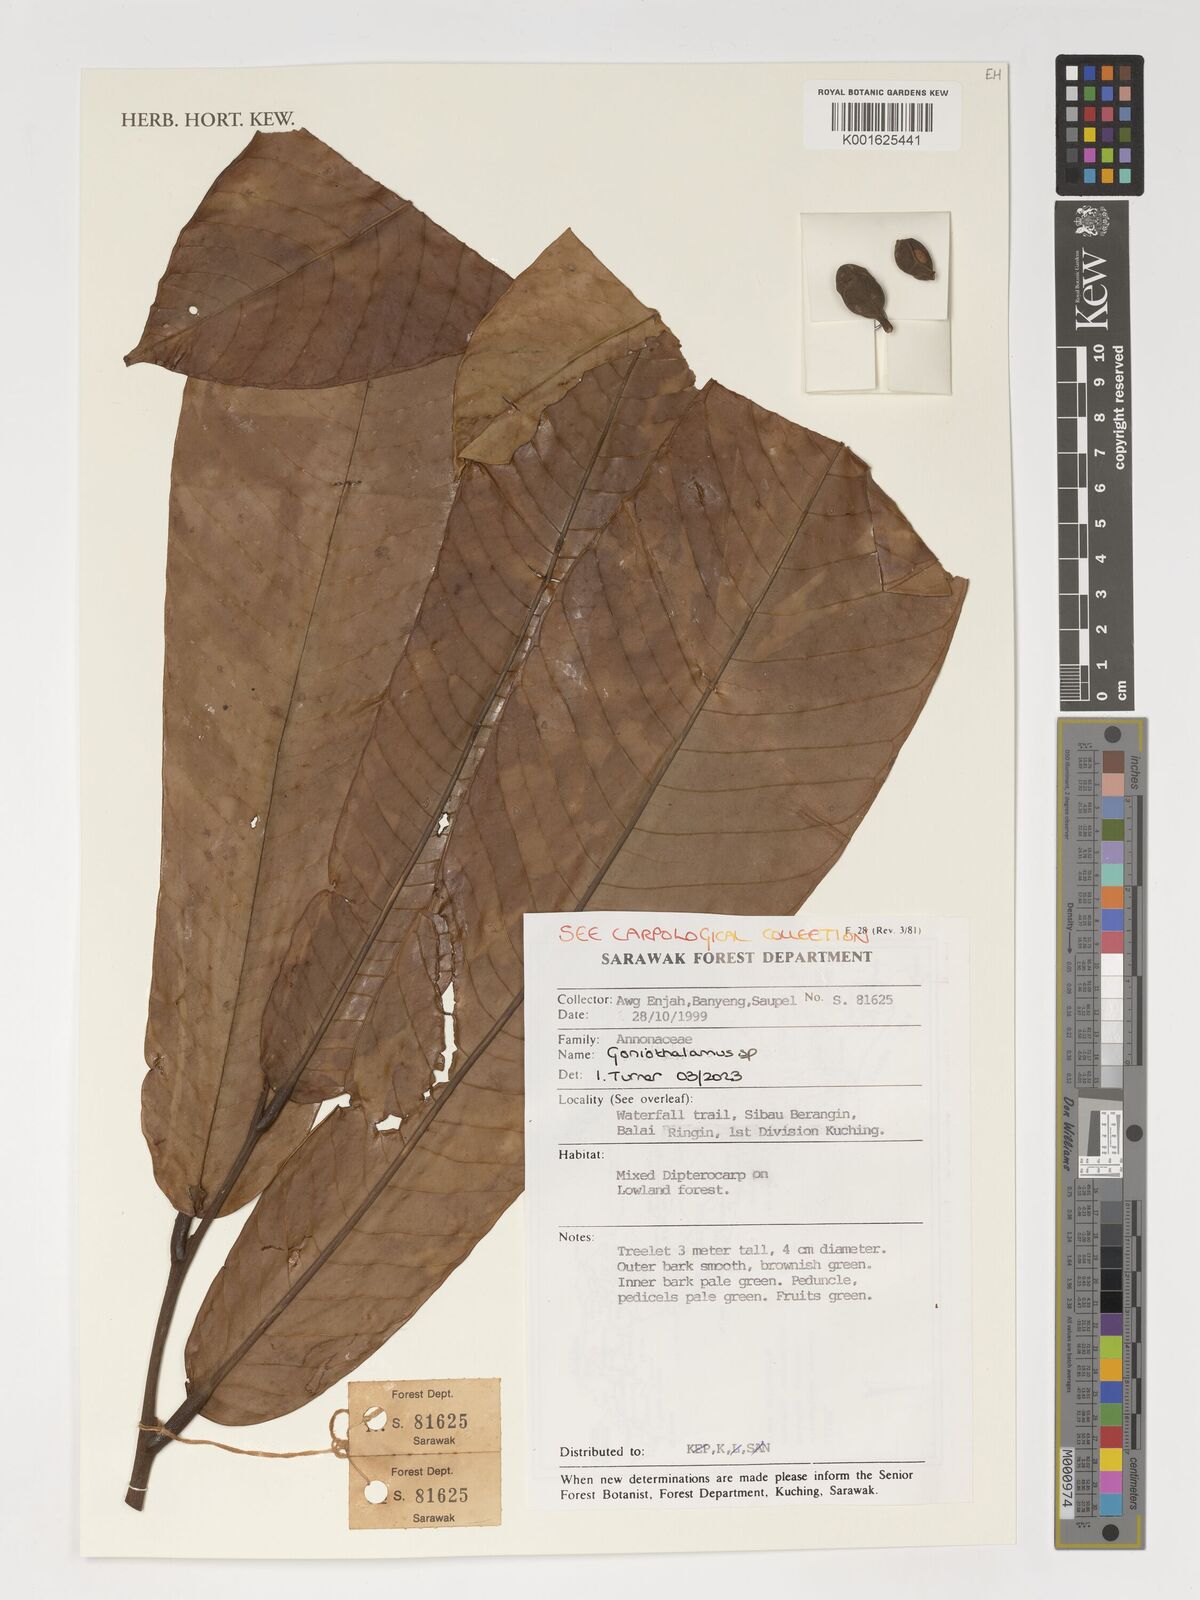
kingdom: Plantae
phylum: Tracheophyta
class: Magnoliopsida
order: Magnoliales
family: Annonaceae
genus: Goniothalamus
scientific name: Goniothalamus
